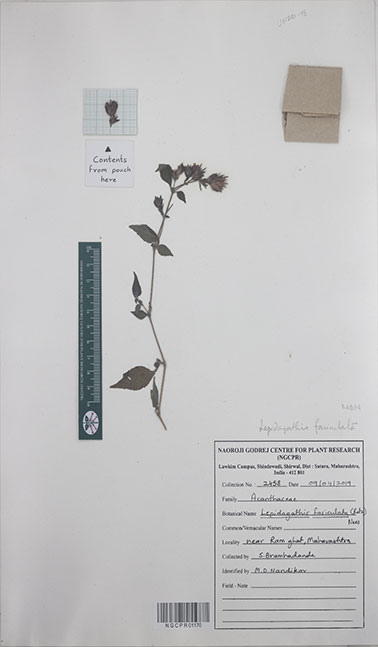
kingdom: Plantae
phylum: Tracheophyta
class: Magnoliopsida
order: Lamiales
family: Acanthaceae
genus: Lepidagathis
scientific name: Lepidagathis fasciculata
